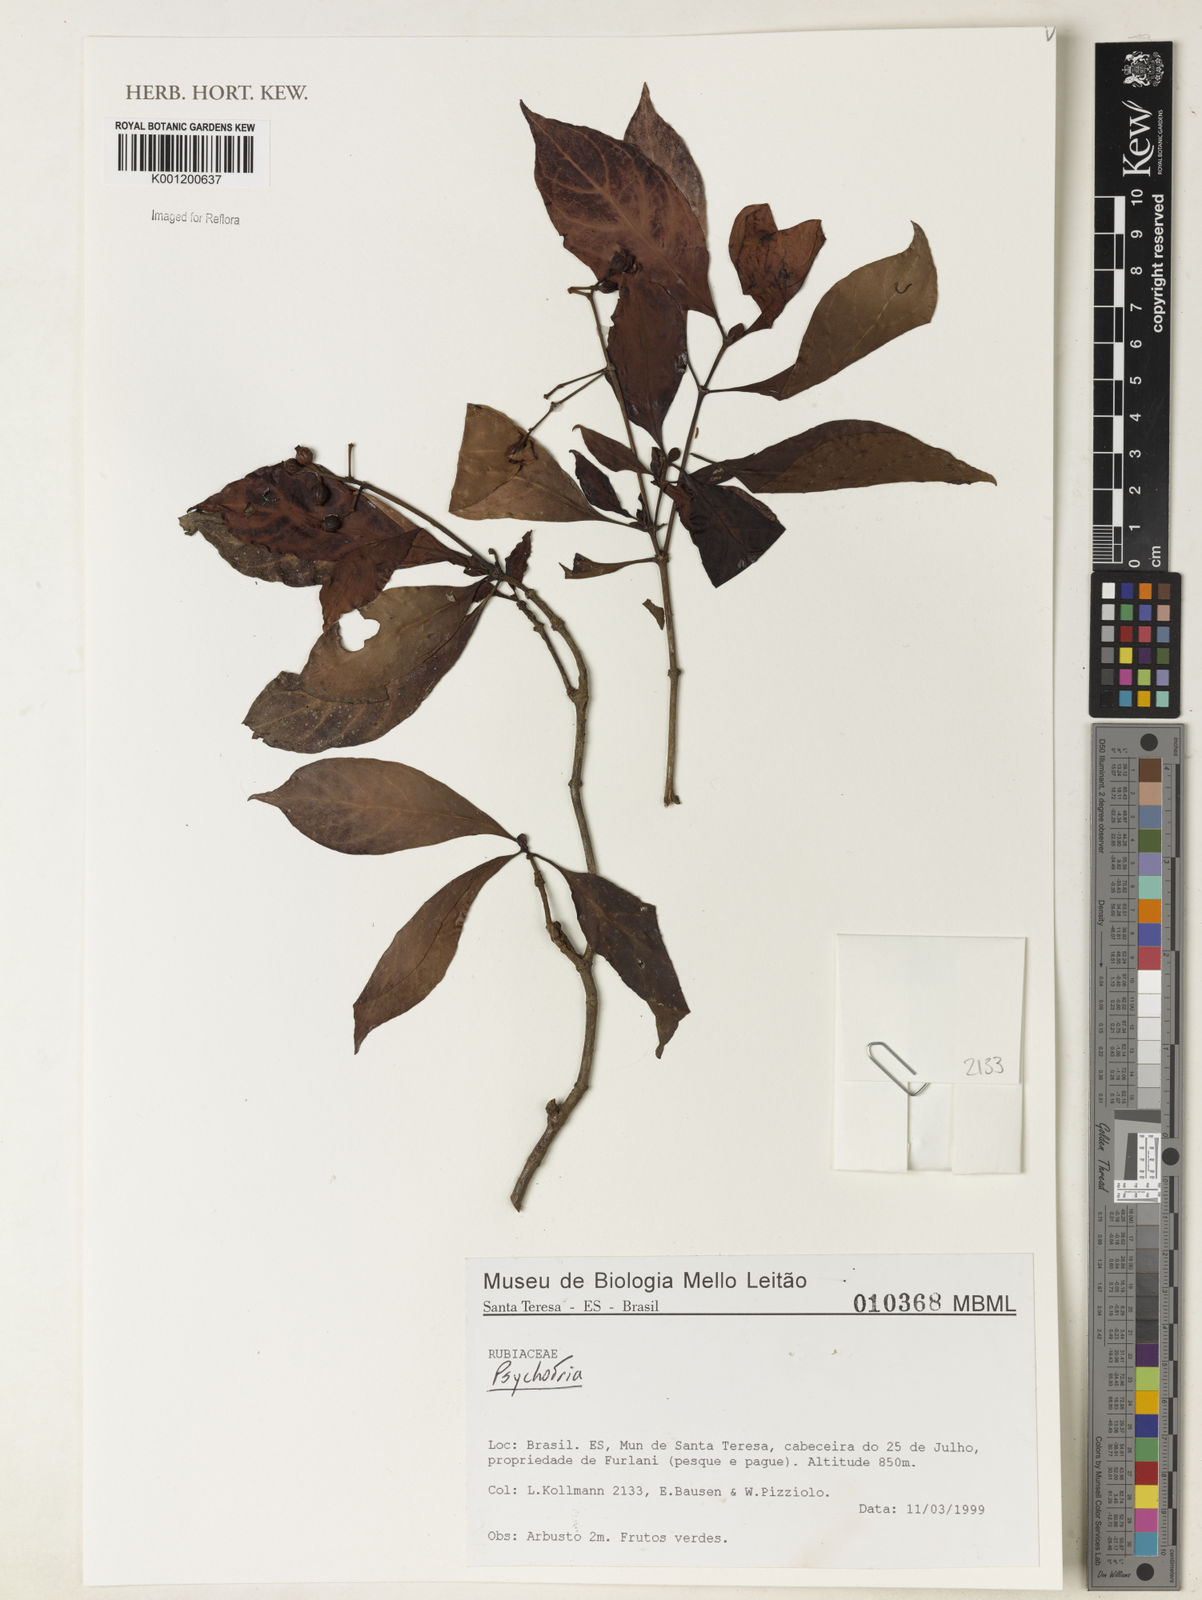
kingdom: Plantae
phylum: Tracheophyta
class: Magnoliopsida
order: Gentianales
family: Rubiaceae
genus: Psychotria
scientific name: Psychotria
